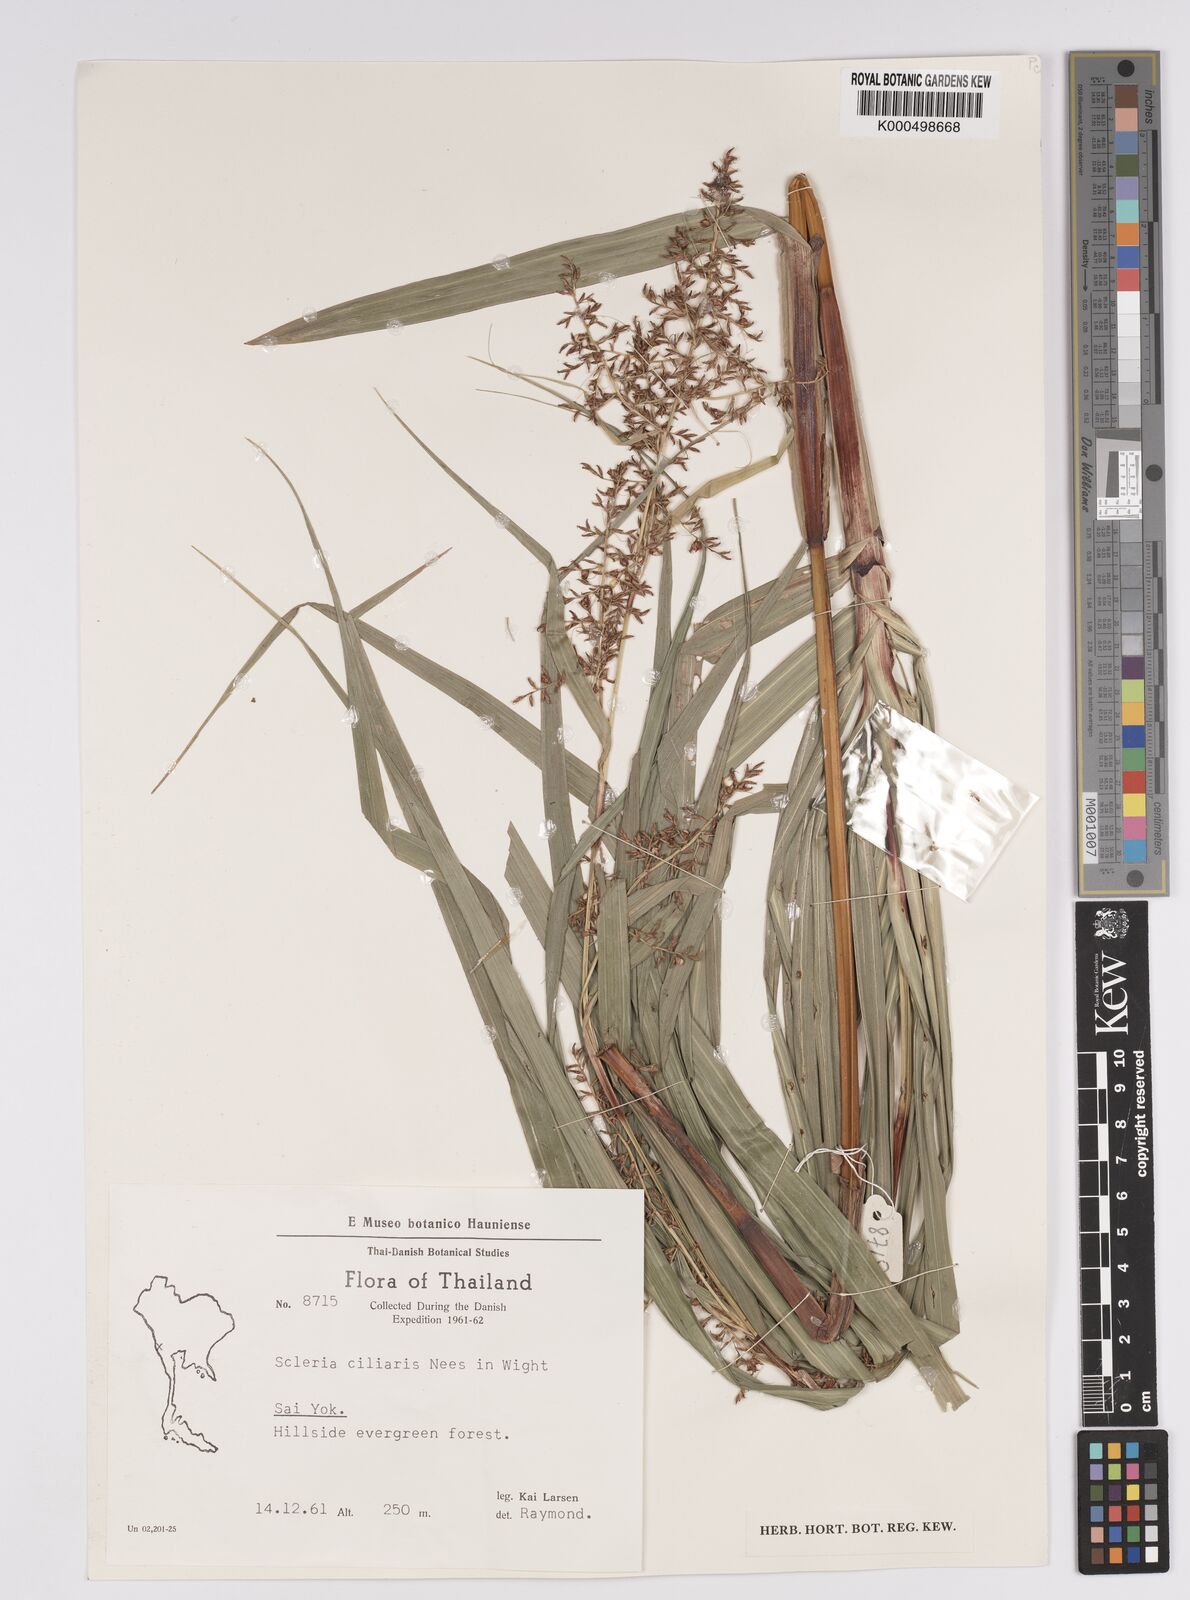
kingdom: Plantae
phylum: Tracheophyta
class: Liliopsida
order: Poales
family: Cyperaceae
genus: Scleria
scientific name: Scleria ciliaris
